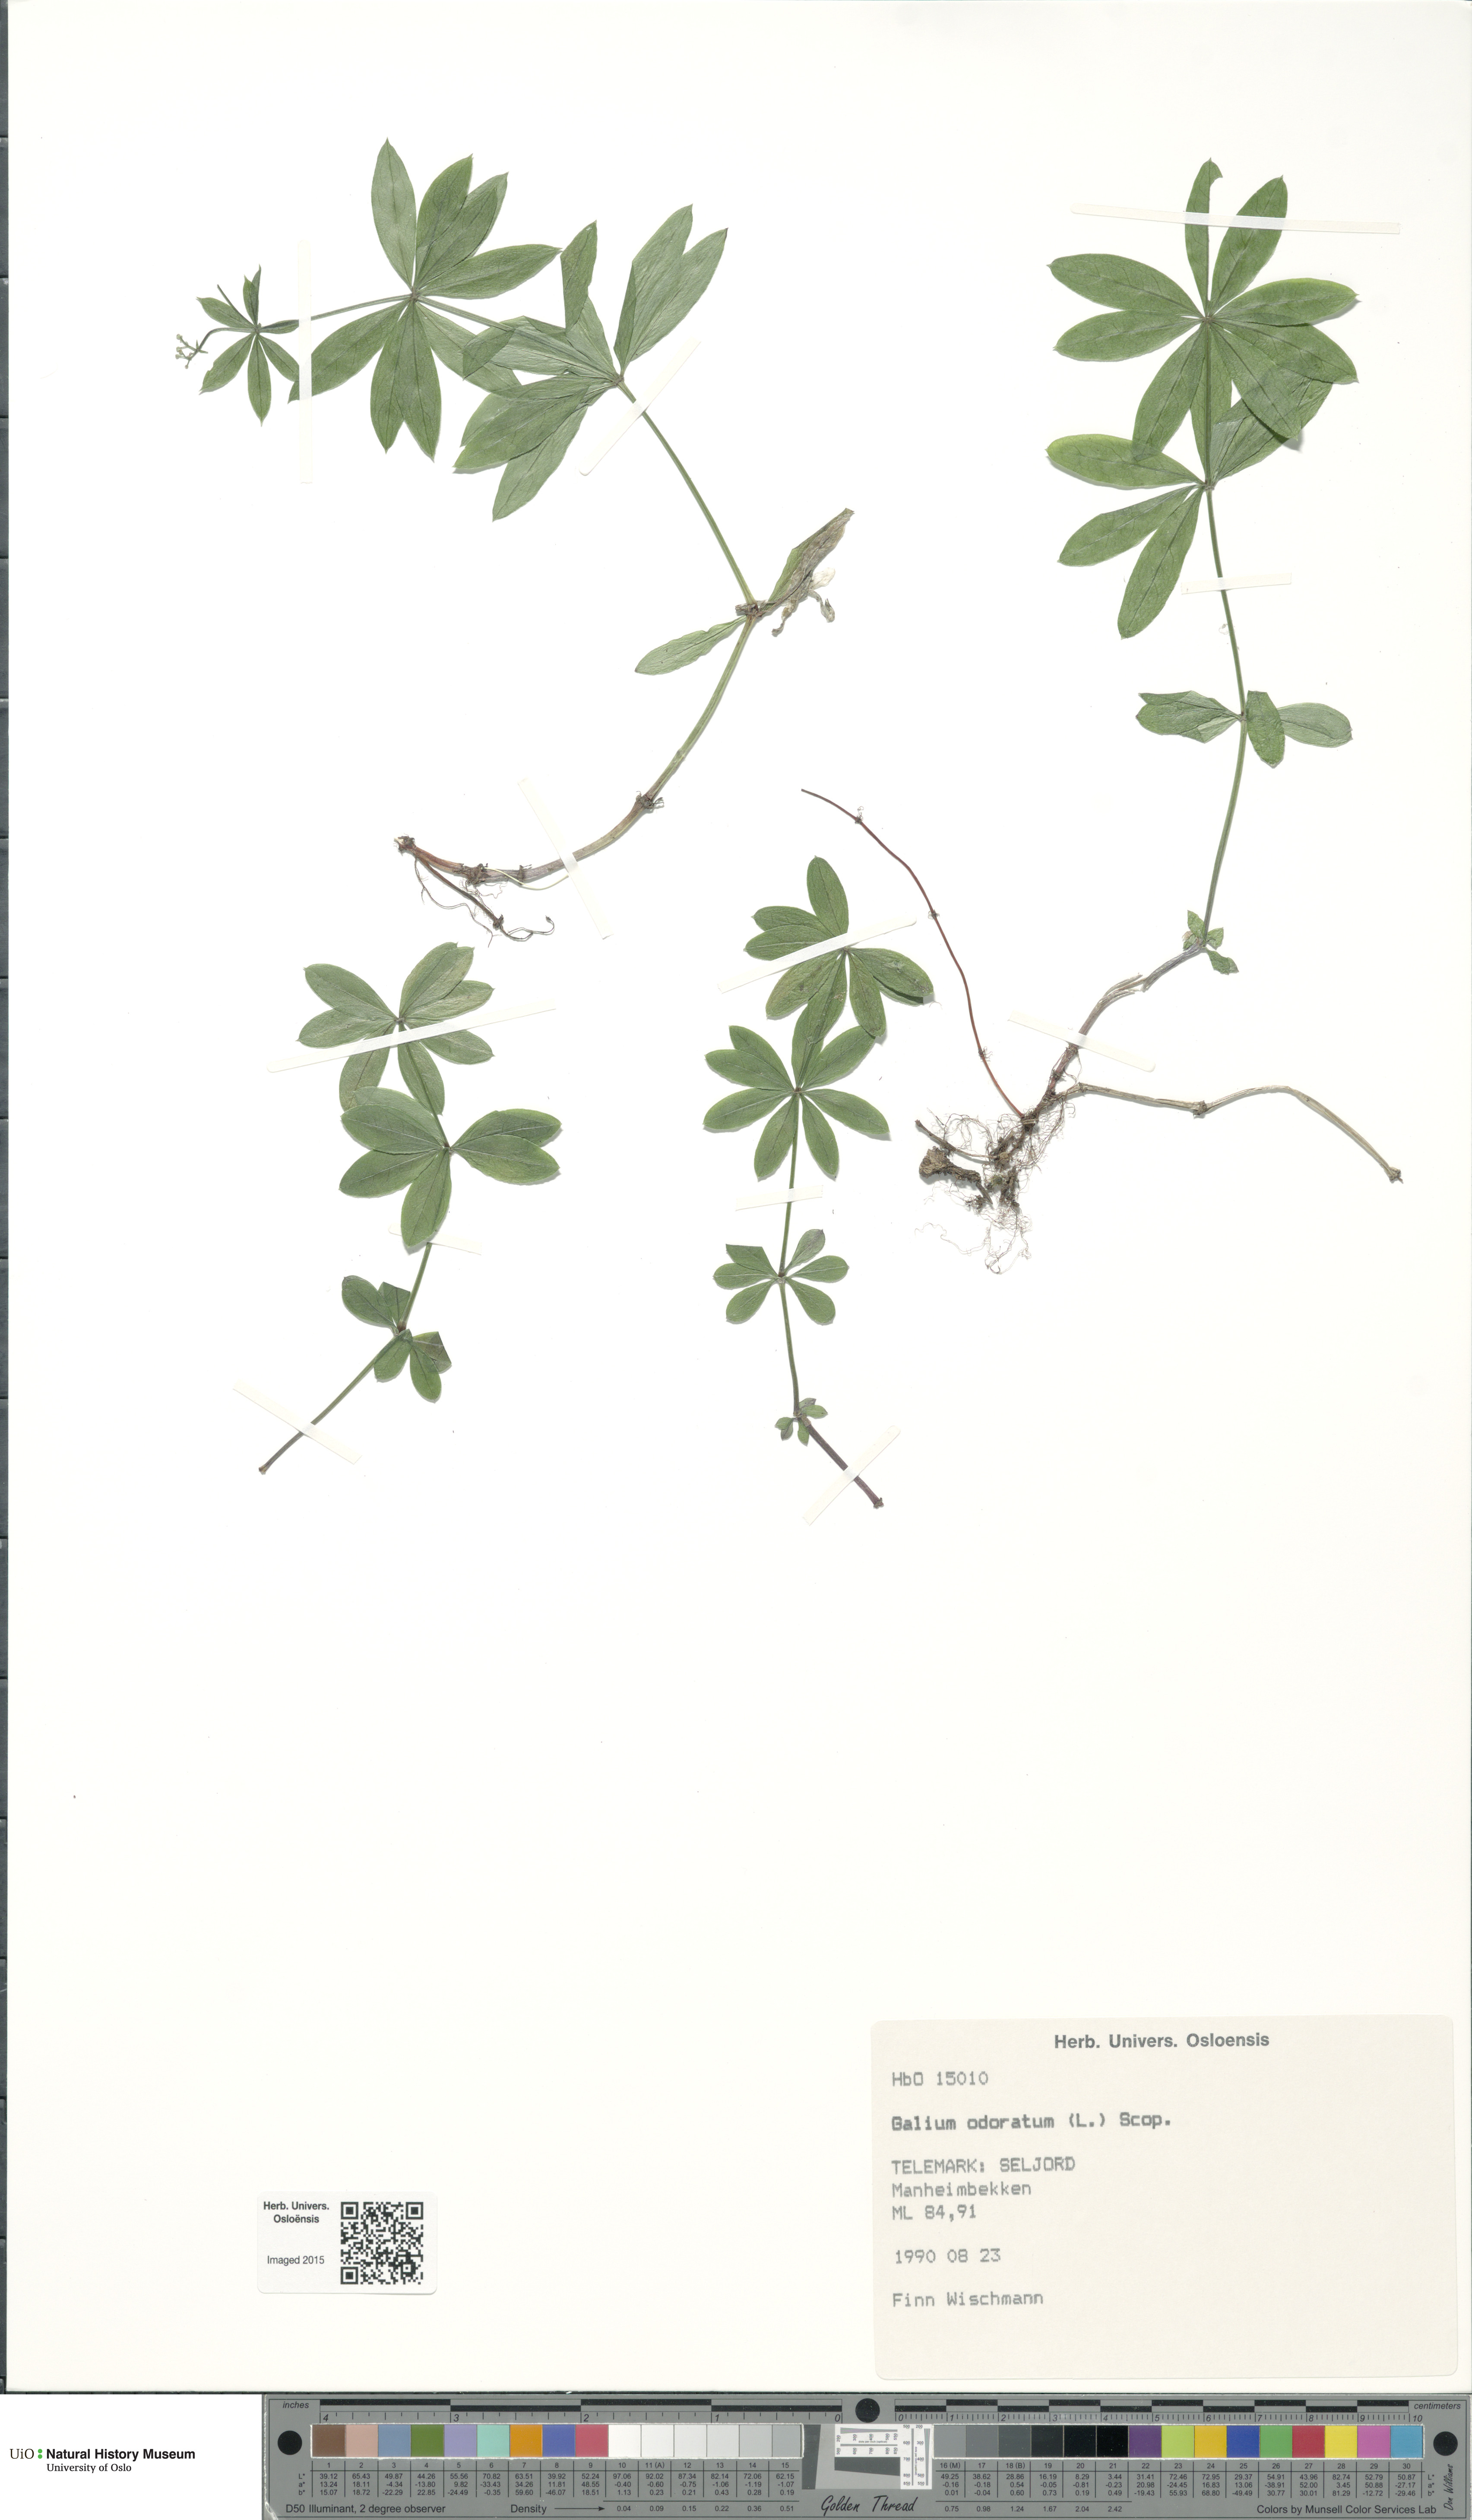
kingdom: Plantae
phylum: Tracheophyta
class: Magnoliopsida
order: Gentianales
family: Rubiaceae
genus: Galium
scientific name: Galium odoratum
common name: Sweet woodruff
